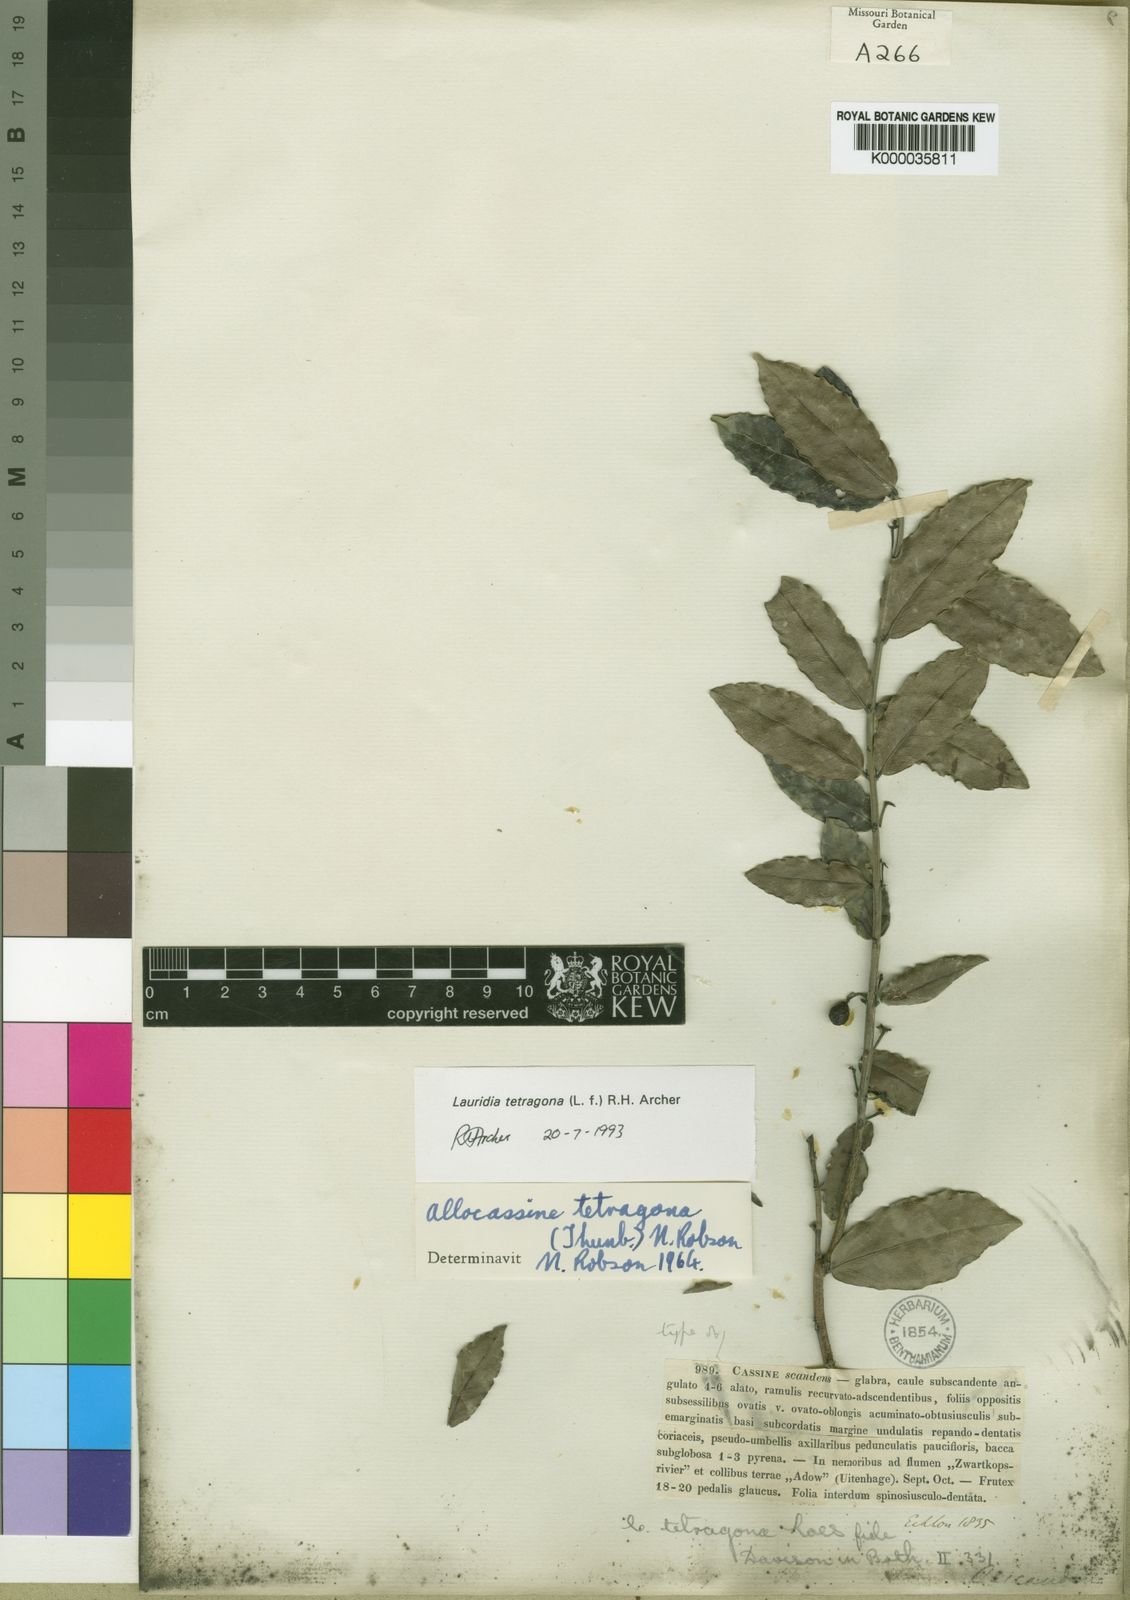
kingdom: Plantae
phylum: Tracheophyta
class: Magnoliopsida
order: Celastrales
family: Celastraceae
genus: Lauridia
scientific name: Lauridia tetragona
